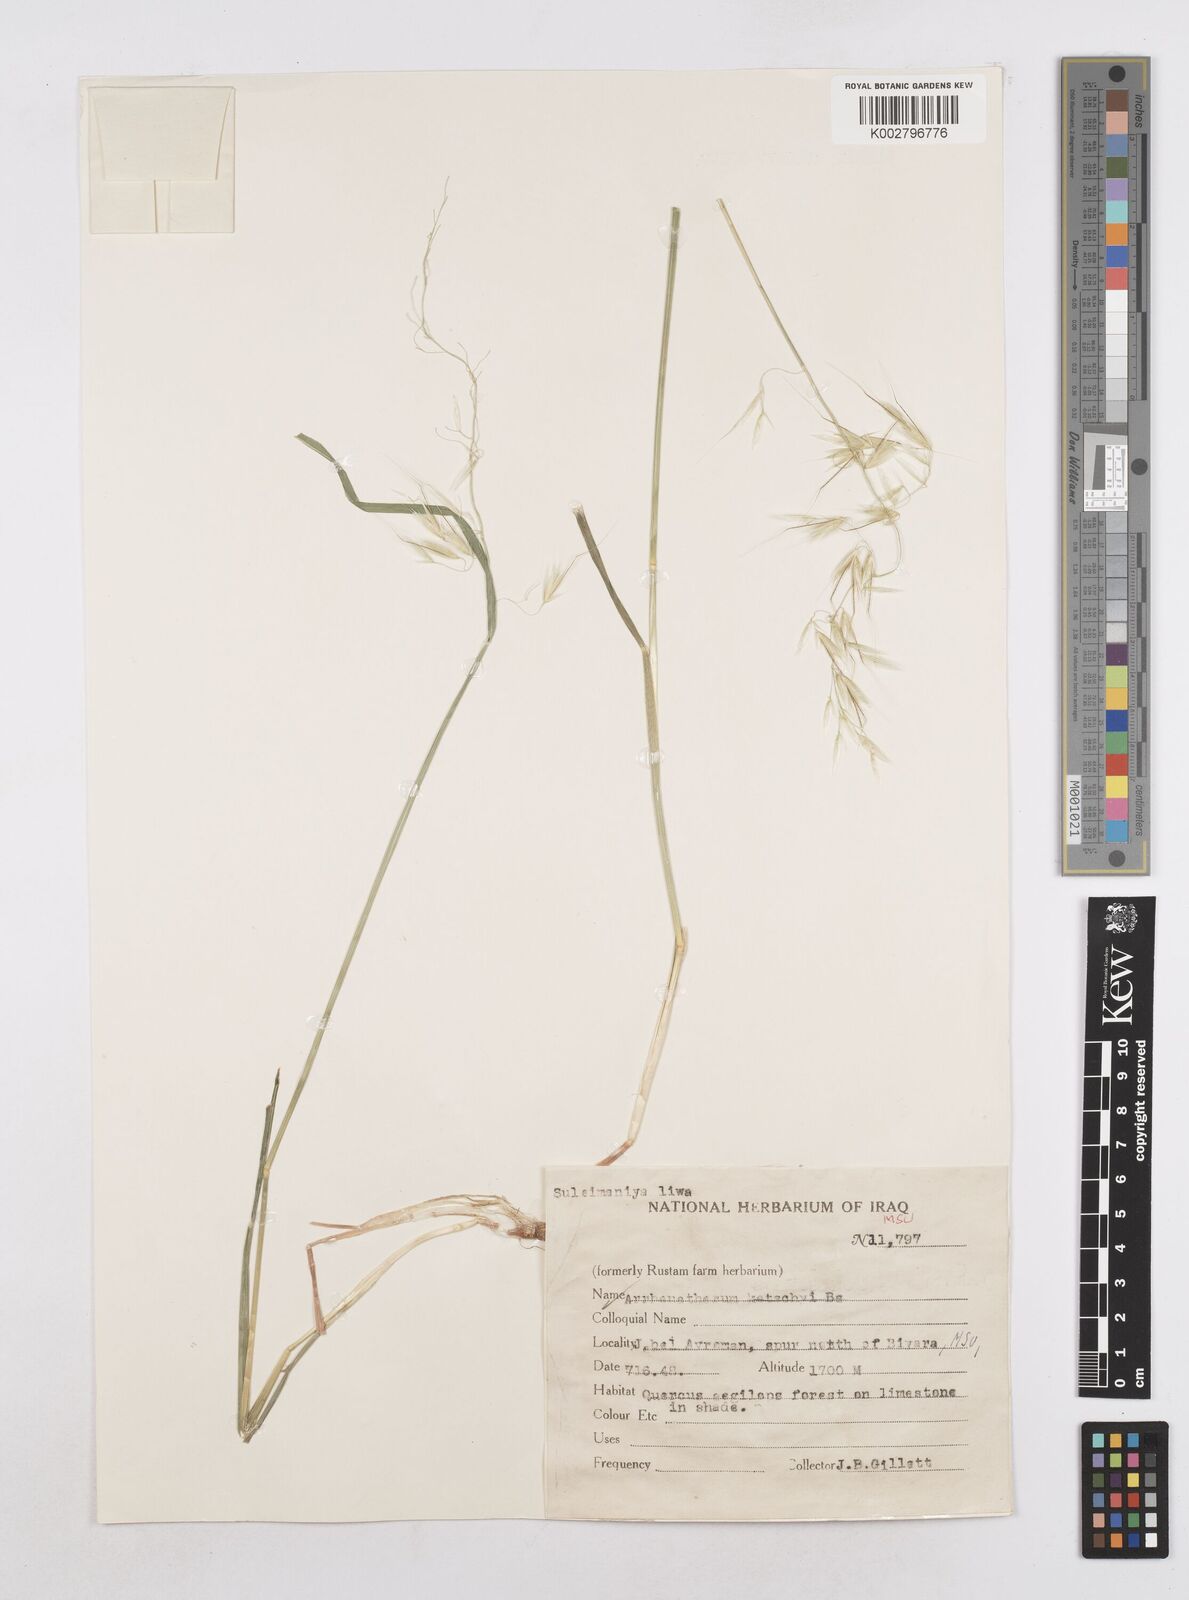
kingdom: Plantae
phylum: Tracheophyta
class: Liliopsida
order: Poales
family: Poaceae
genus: Arrhenatherum
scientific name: Arrhenatherum kotschyi
